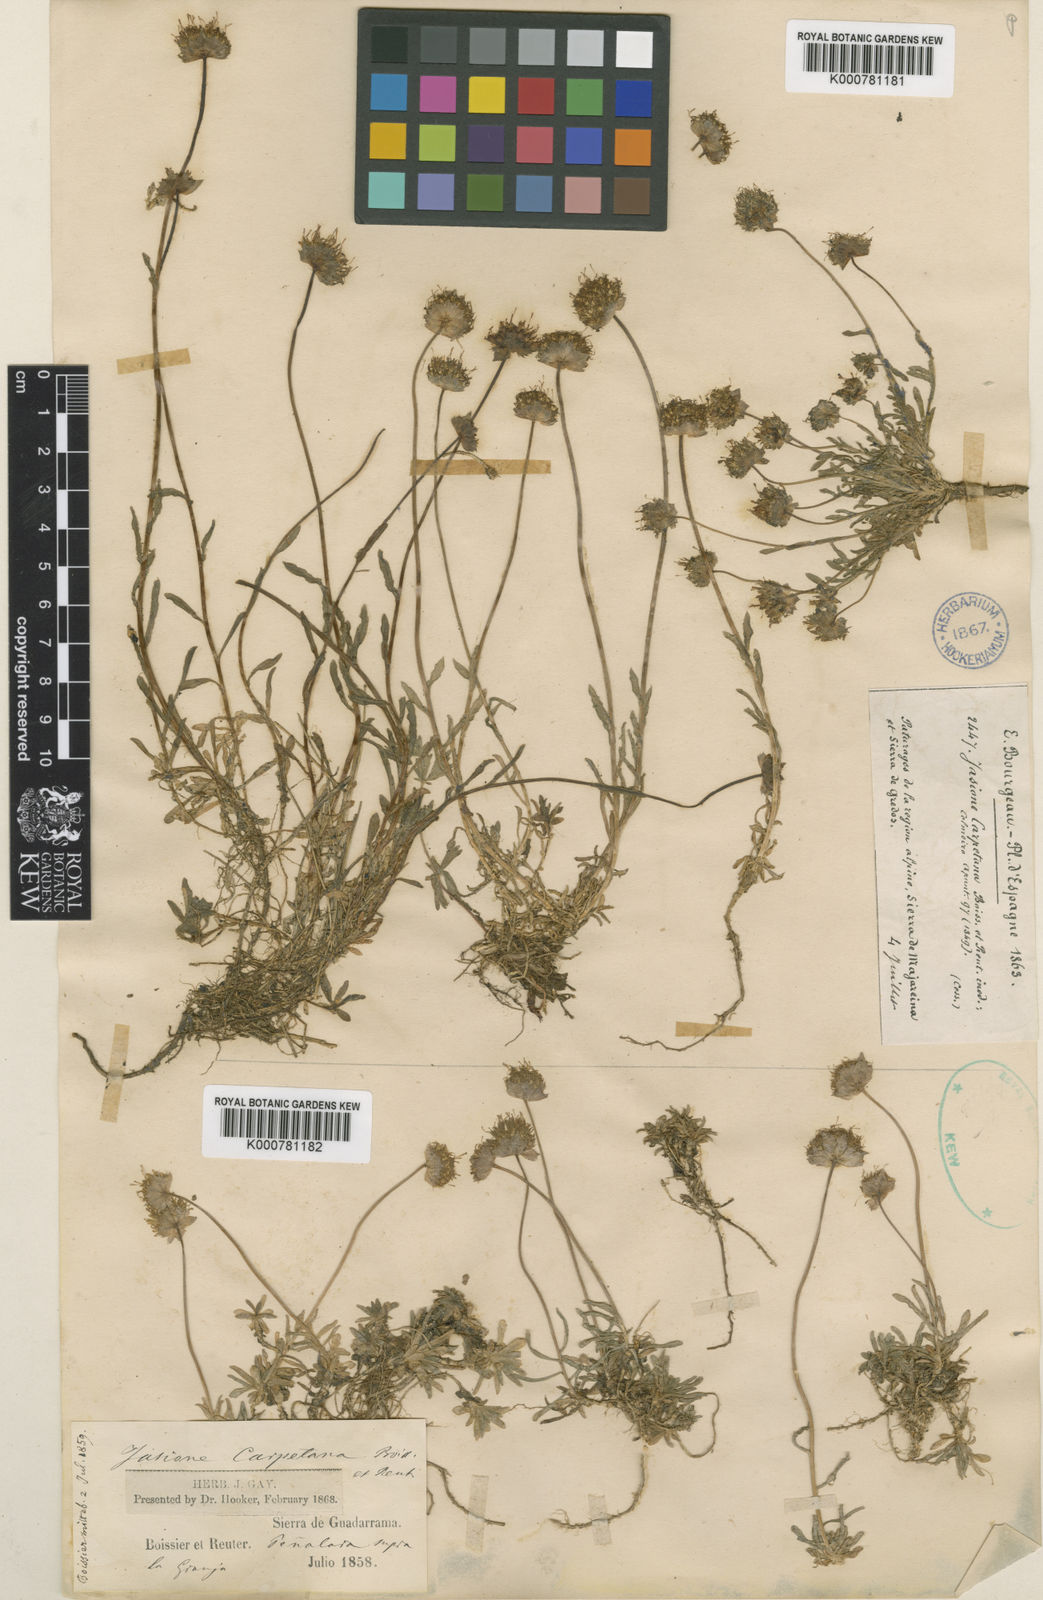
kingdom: Plantae
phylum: Tracheophyta
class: Magnoliopsida
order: Asterales
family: Campanulaceae
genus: Jasione
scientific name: Jasione laevis
